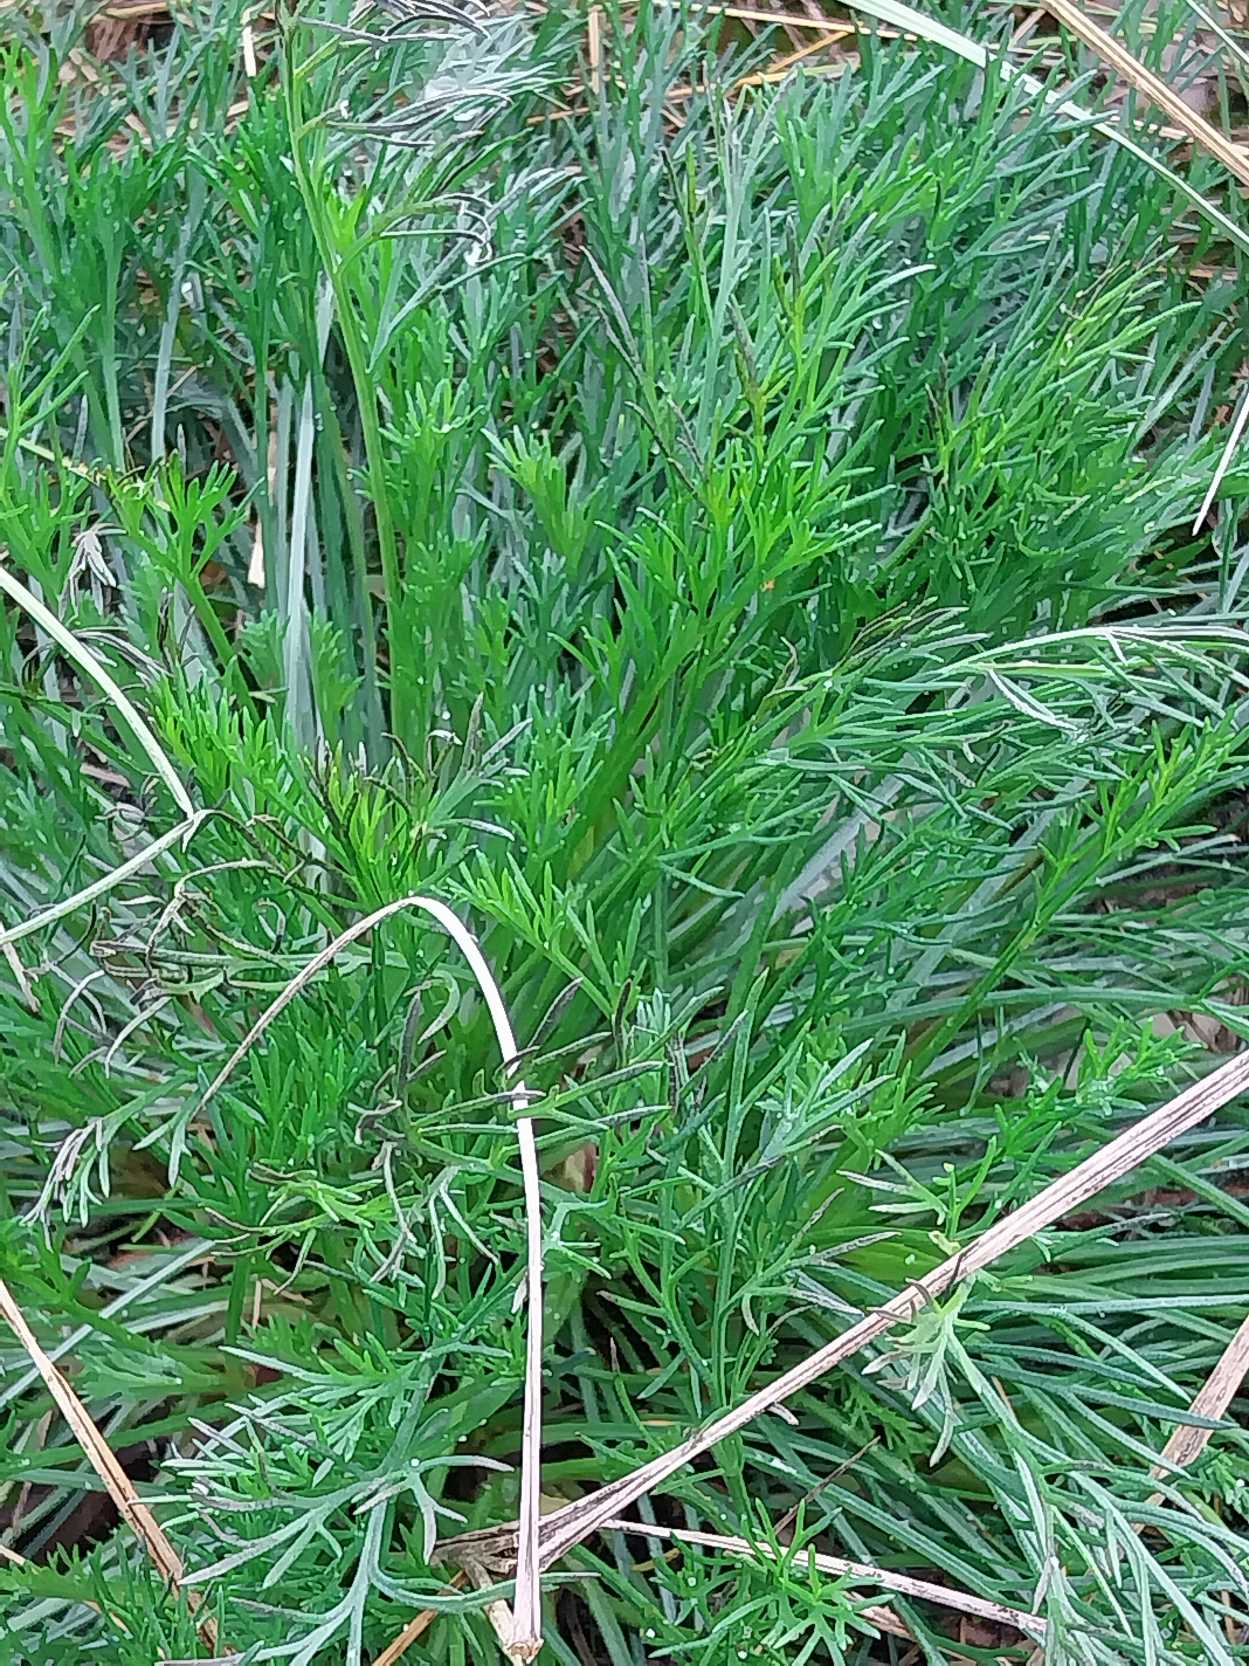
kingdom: Plantae
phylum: Tracheophyta
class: Magnoliopsida
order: Asterales
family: Asteraceae
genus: Artemisia
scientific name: Artemisia campestris
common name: Mark-bynke
